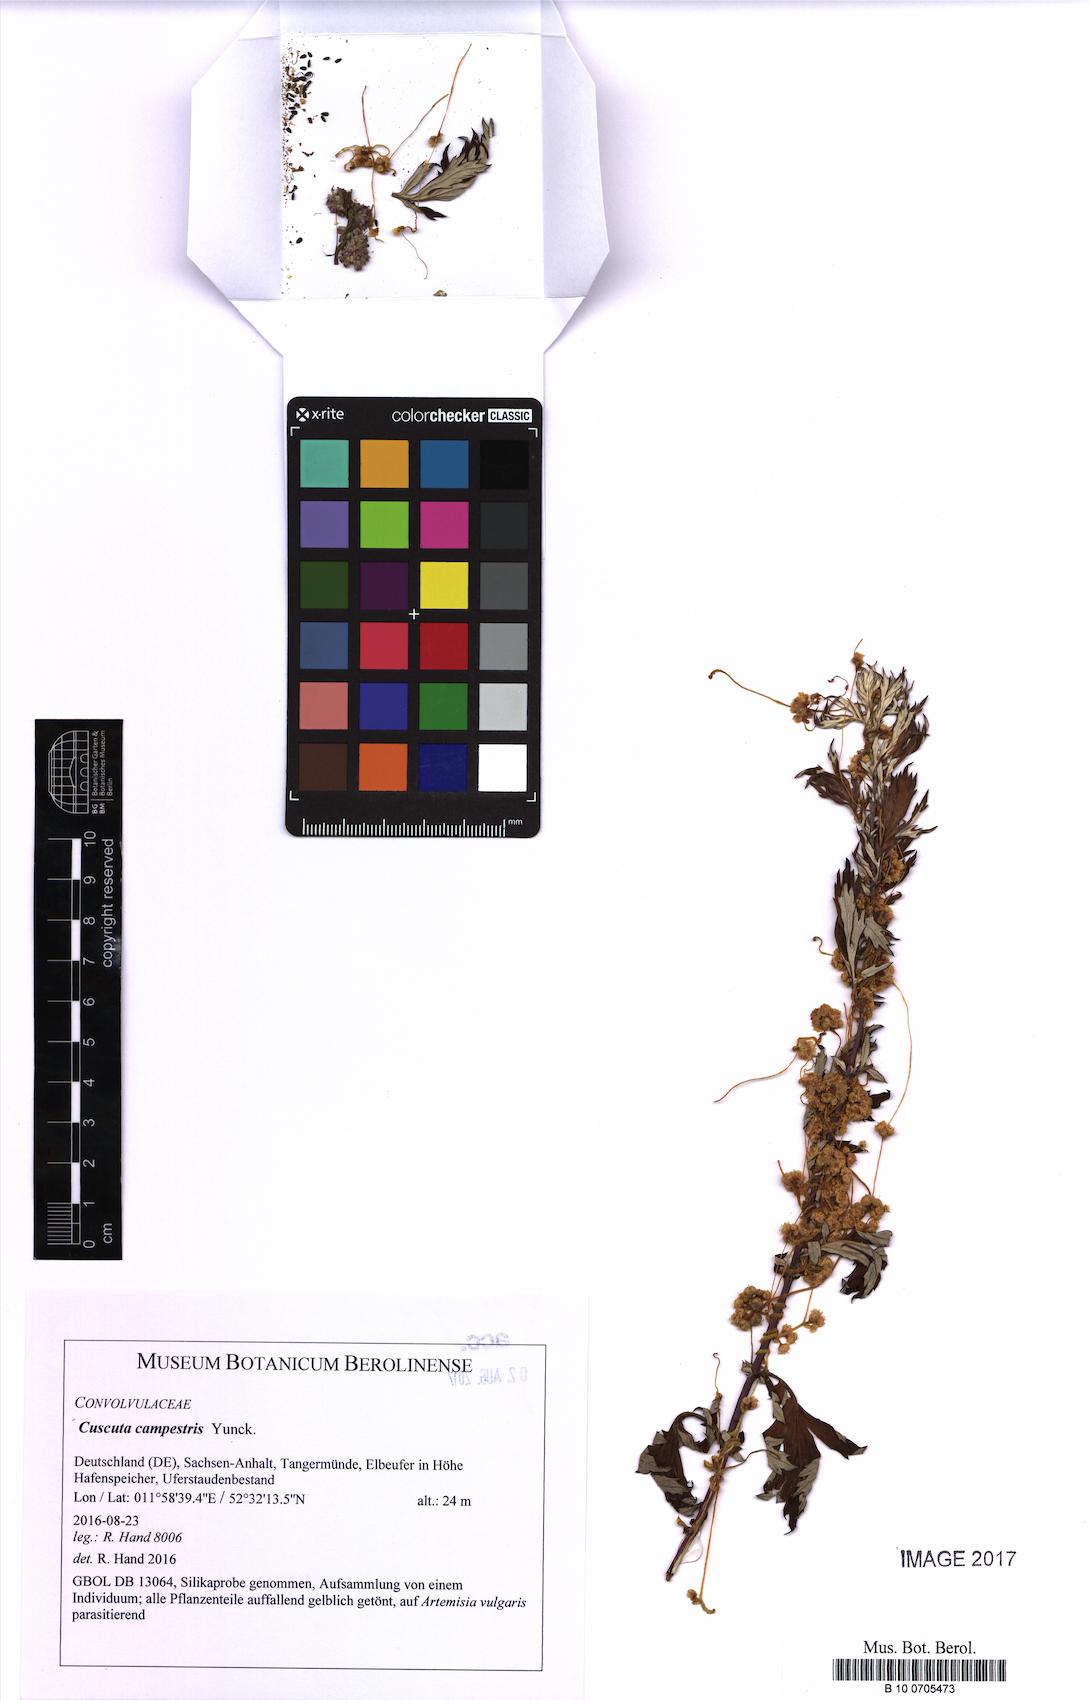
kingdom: Plantae
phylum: Tracheophyta
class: Magnoliopsida
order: Solanales
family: Convolvulaceae
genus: Cuscuta
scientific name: Cuscuta campestris
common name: Yellow dodder
